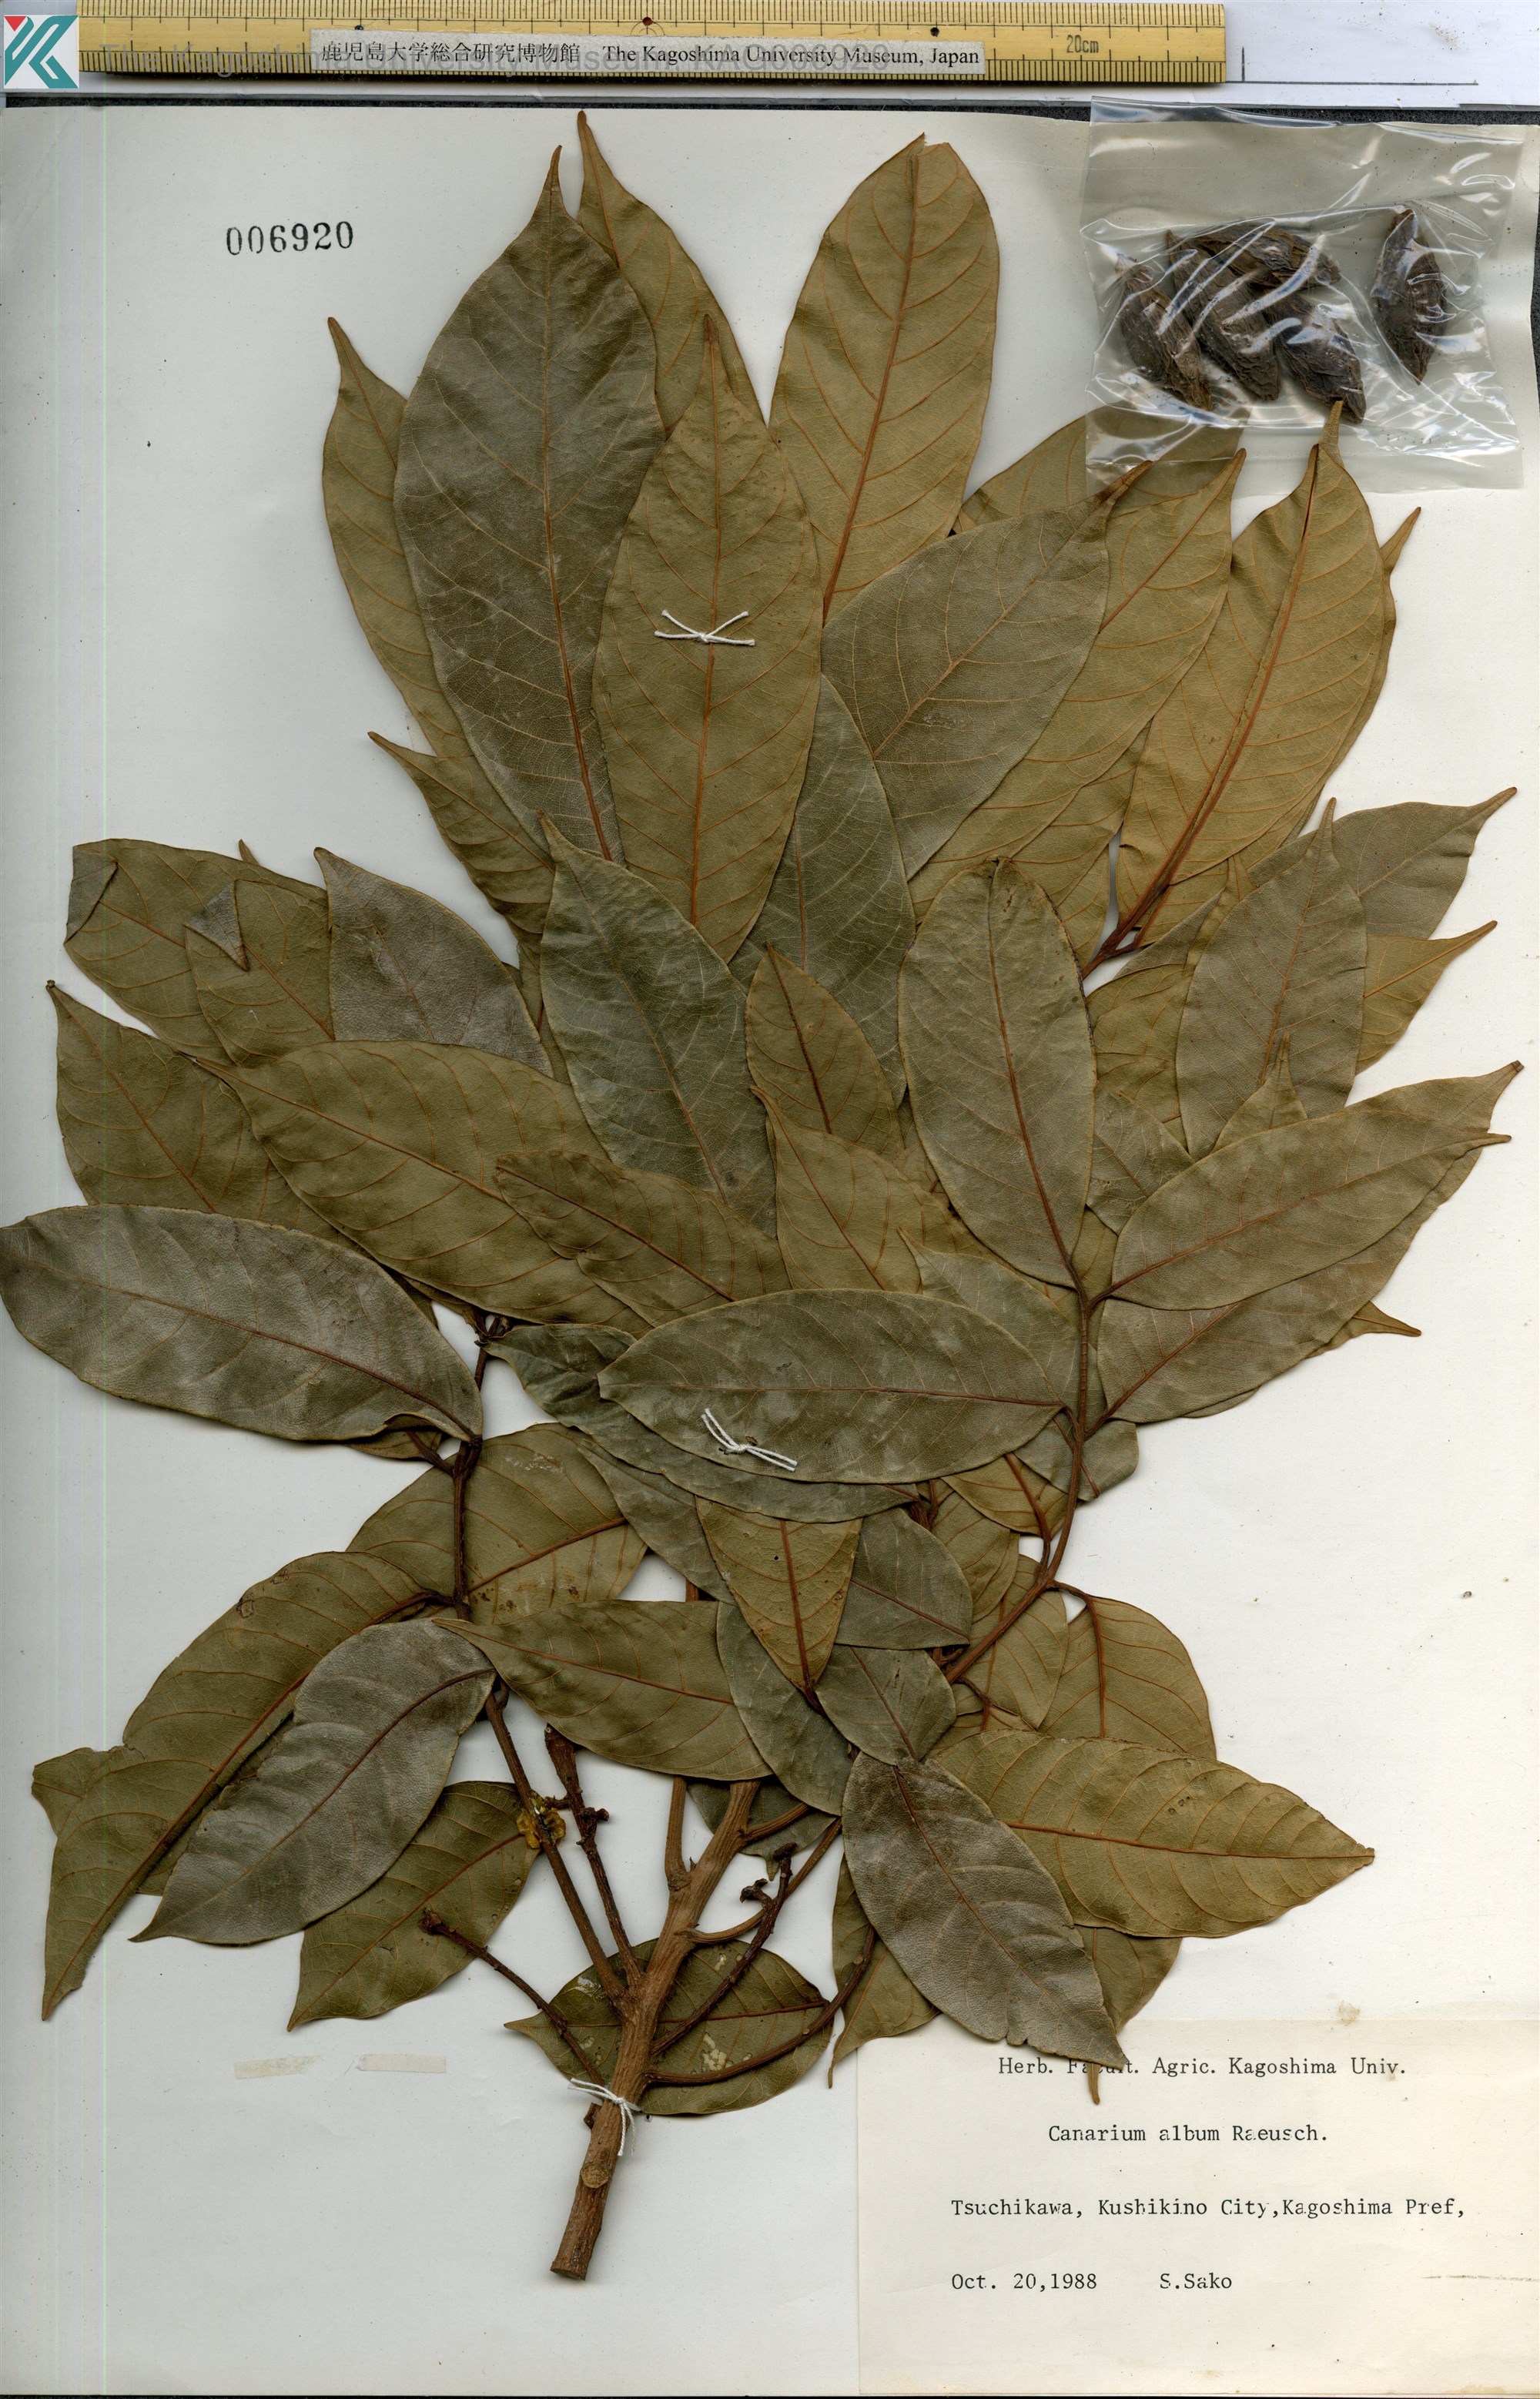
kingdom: Plantae
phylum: Tracheophyta
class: Magnoliopsida
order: Sapindales
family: Burseraceae
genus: Canarium
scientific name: Canarium album
